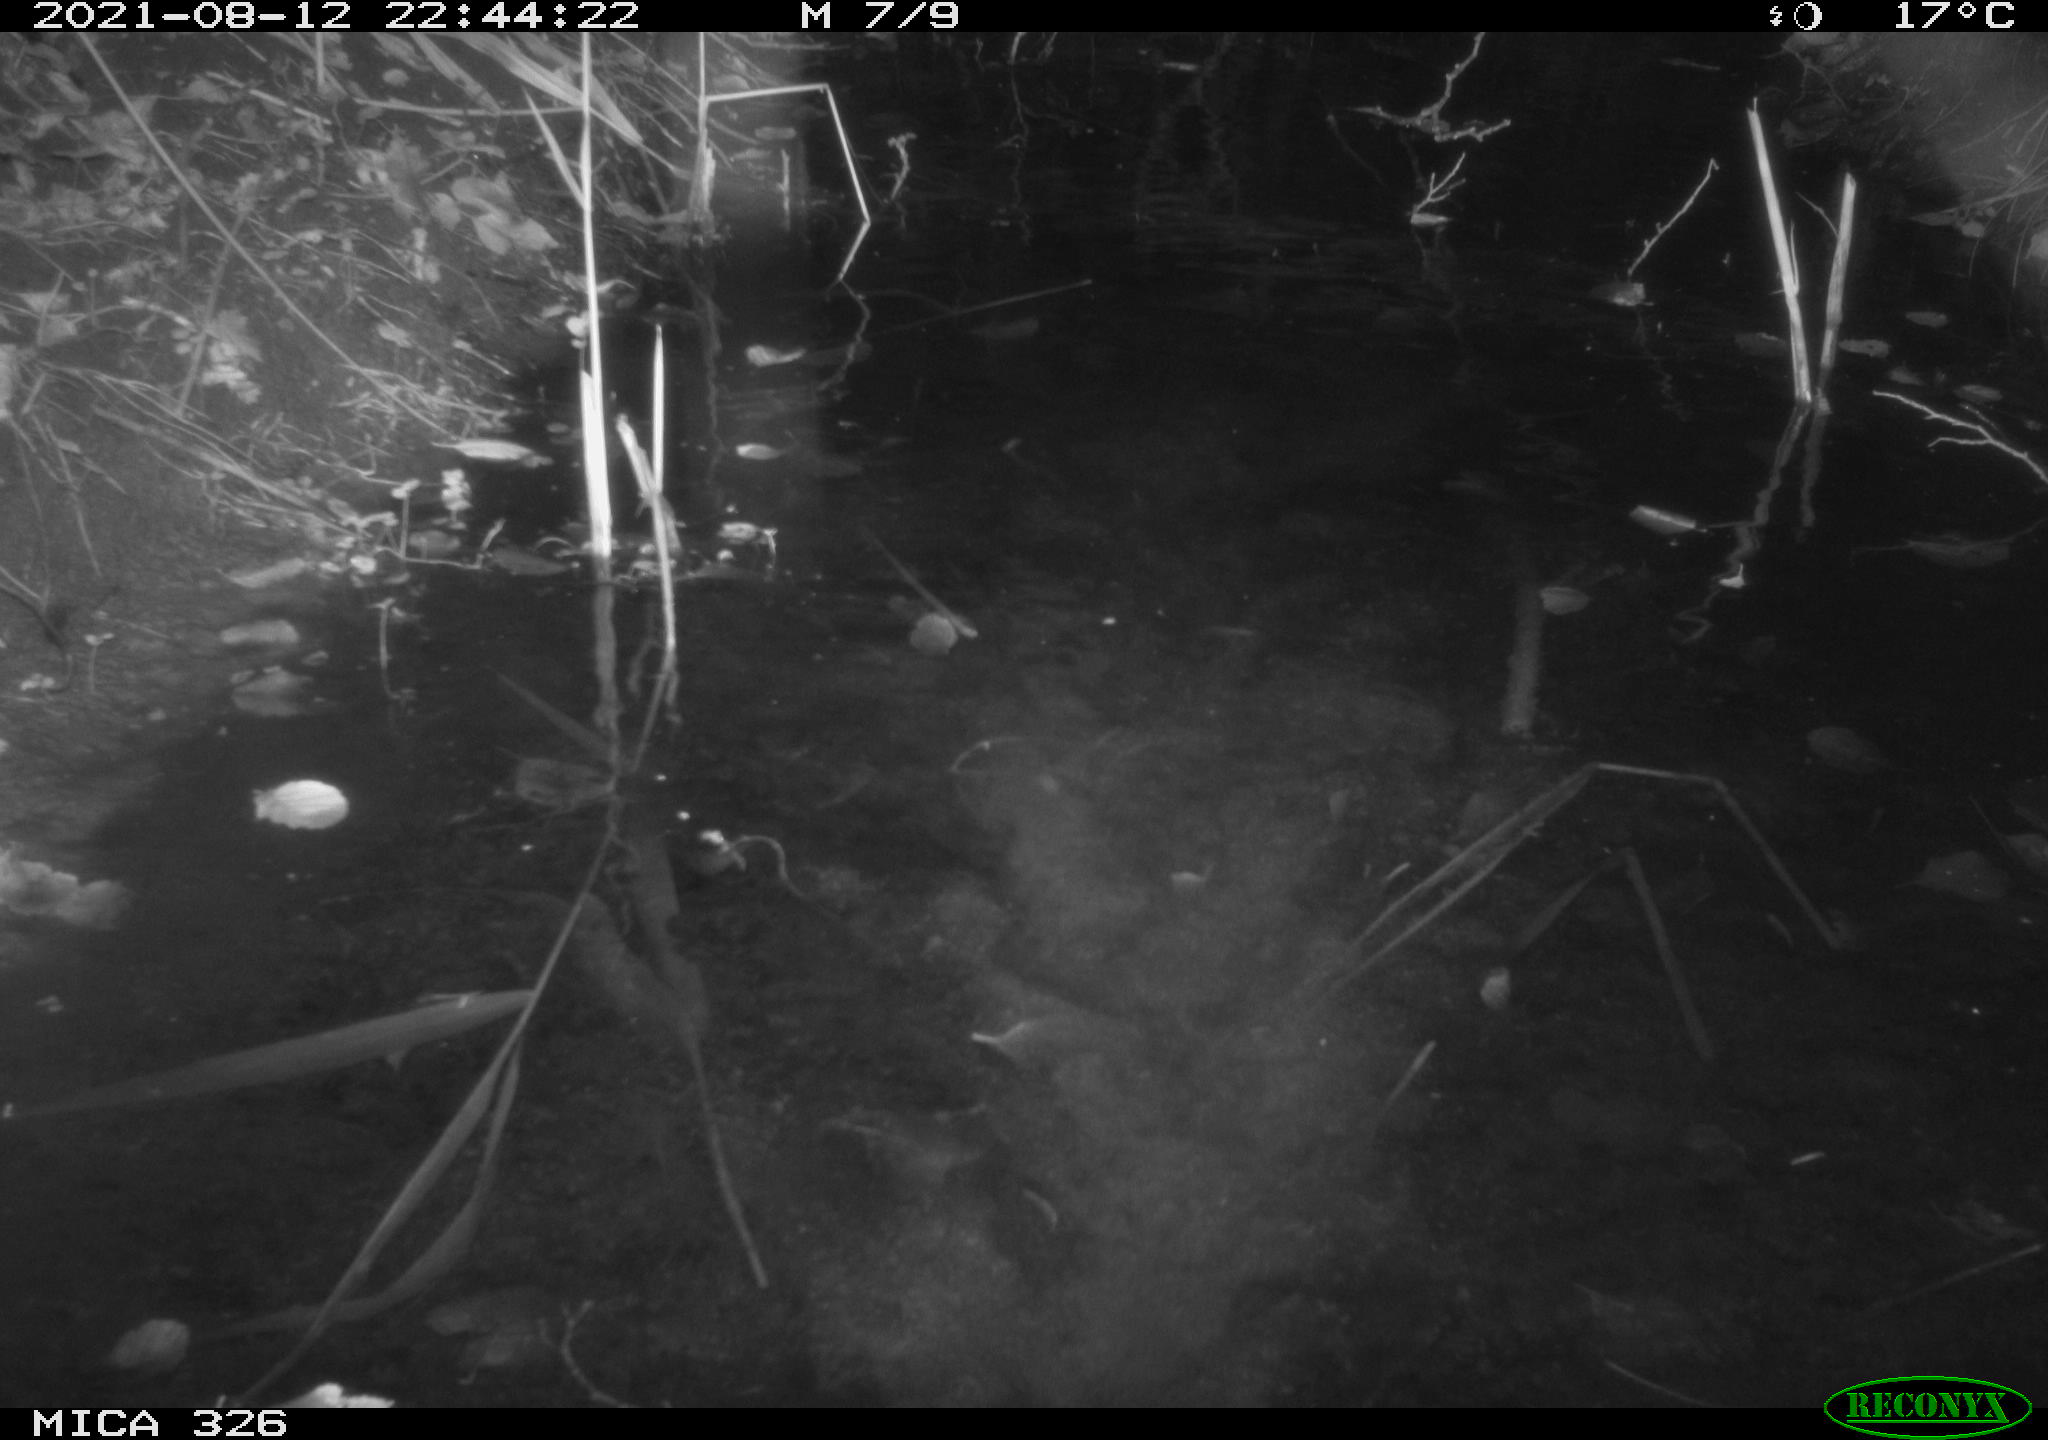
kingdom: Animalia
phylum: Chordata
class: Mammalia
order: Rodentia
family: Myocastoridae
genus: Myocastor
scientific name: Myocastor coypus
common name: Coypu
